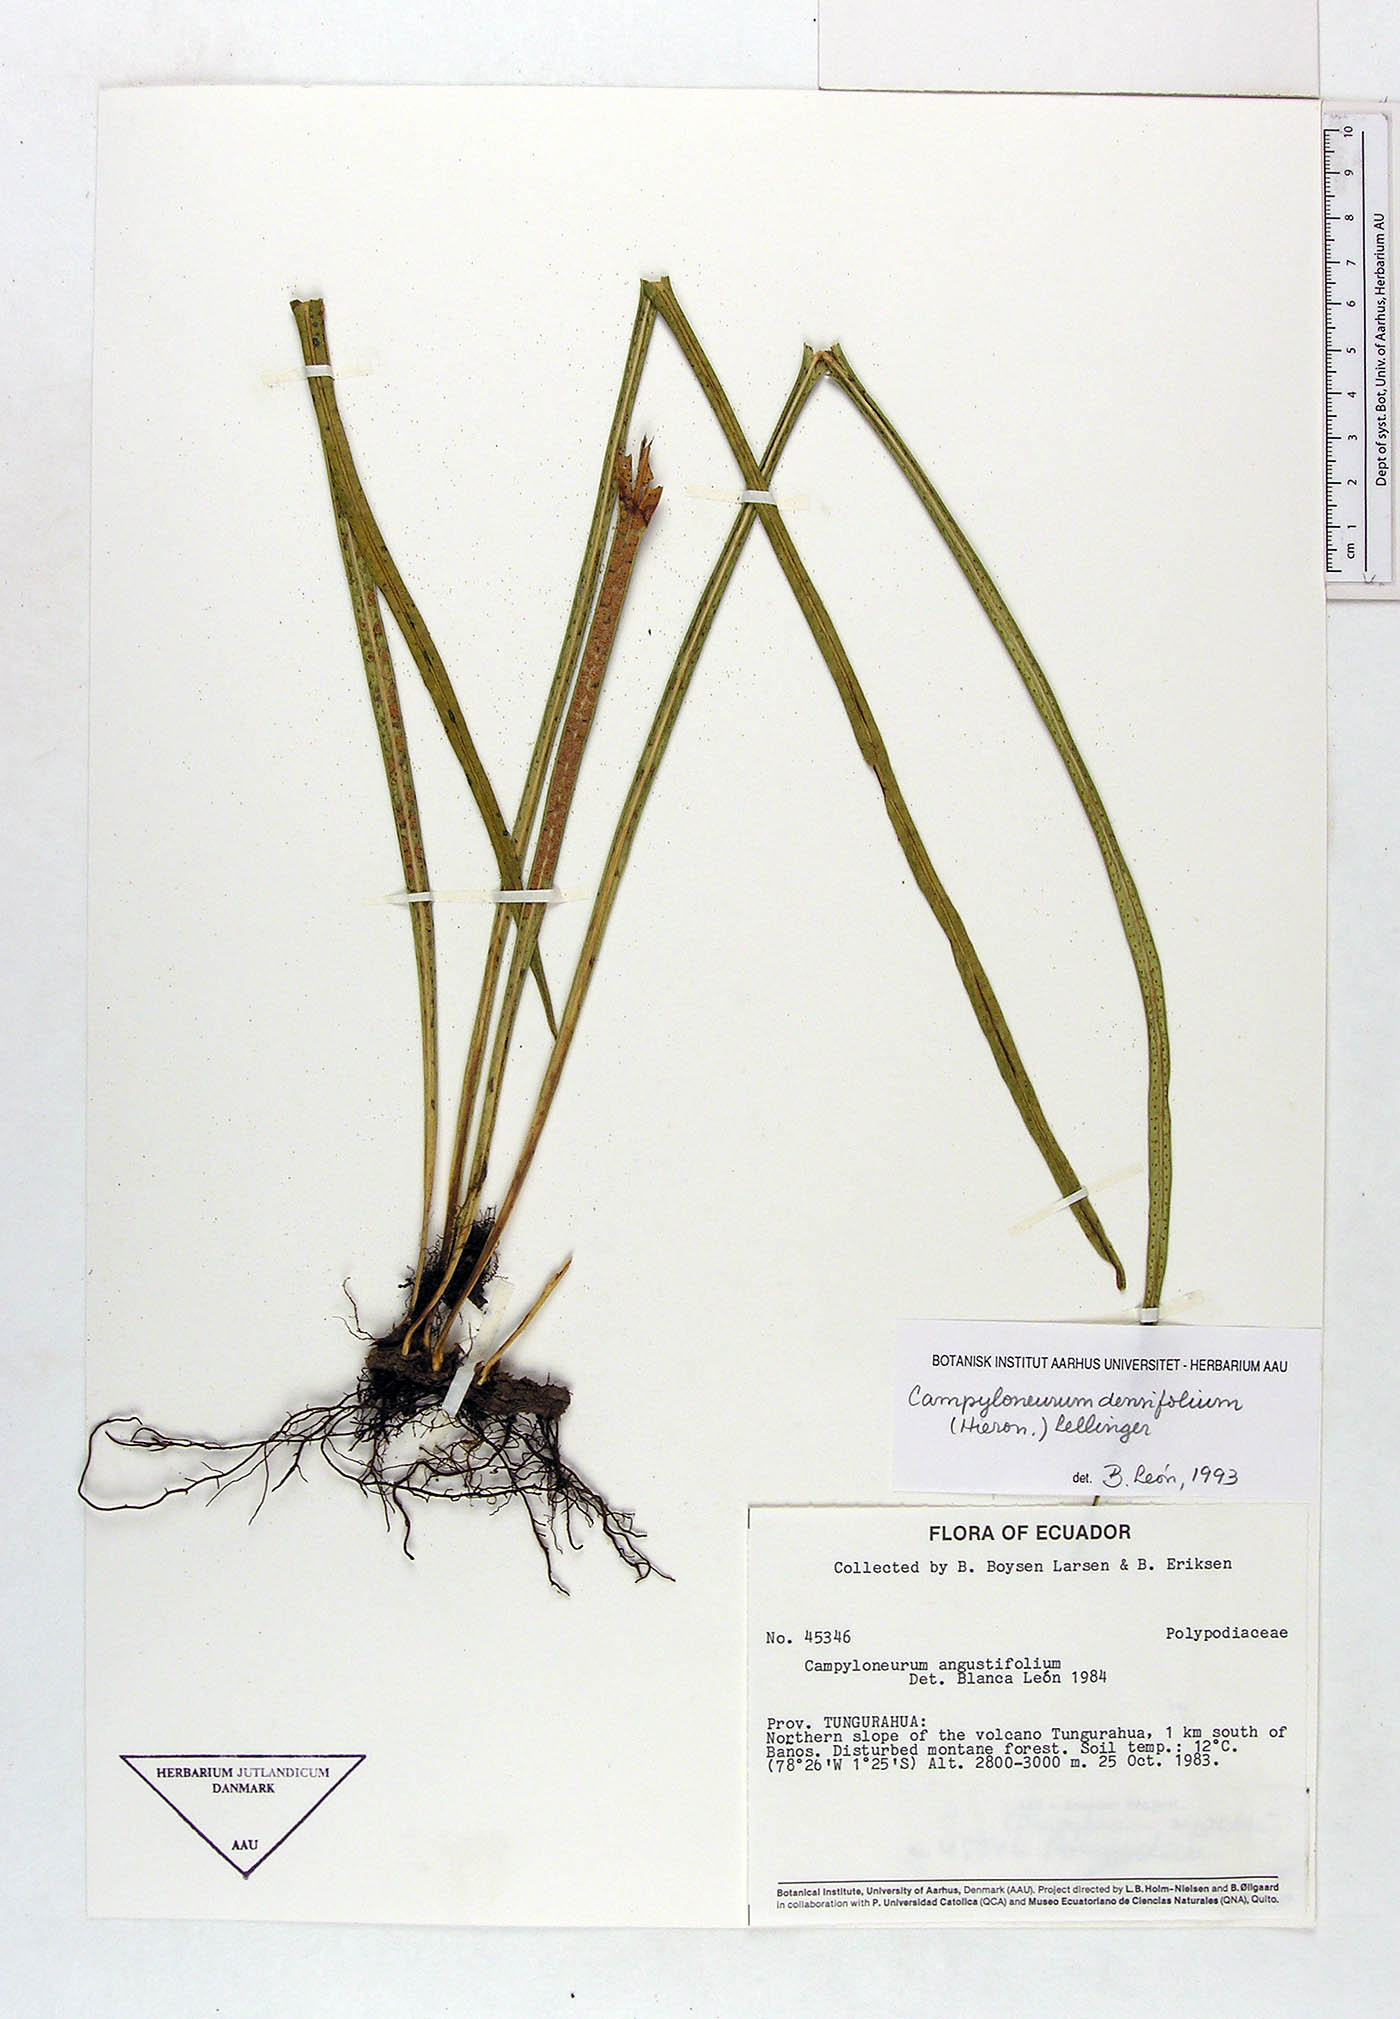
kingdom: Plantae
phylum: Tracheophyta
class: Polypodiopsida
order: Polypodiales
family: Polypodiaceae
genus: Campyloneurum
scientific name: Campyloneurum densifolium
